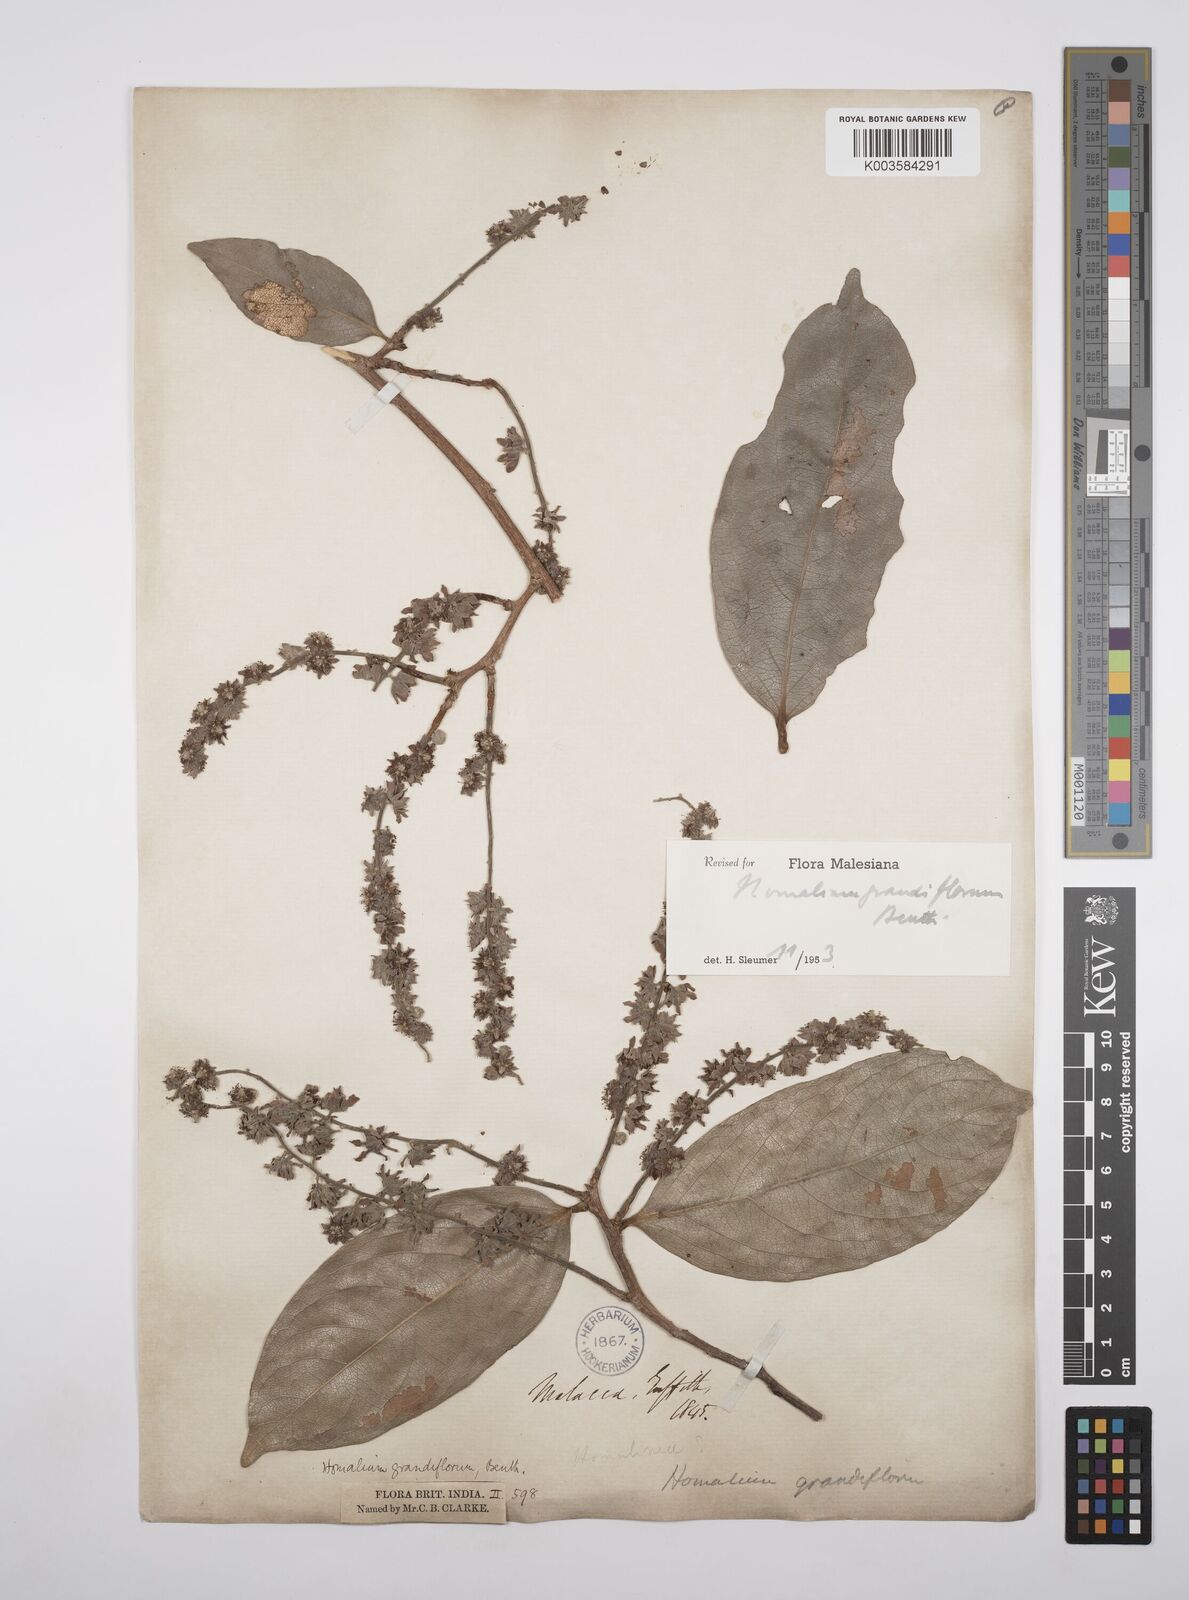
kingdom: Plantae
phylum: Tracheophyta
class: Magnoliopsida
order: Malpighiales
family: Salicaceae
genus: Homalium
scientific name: Homalium grandiflorum
